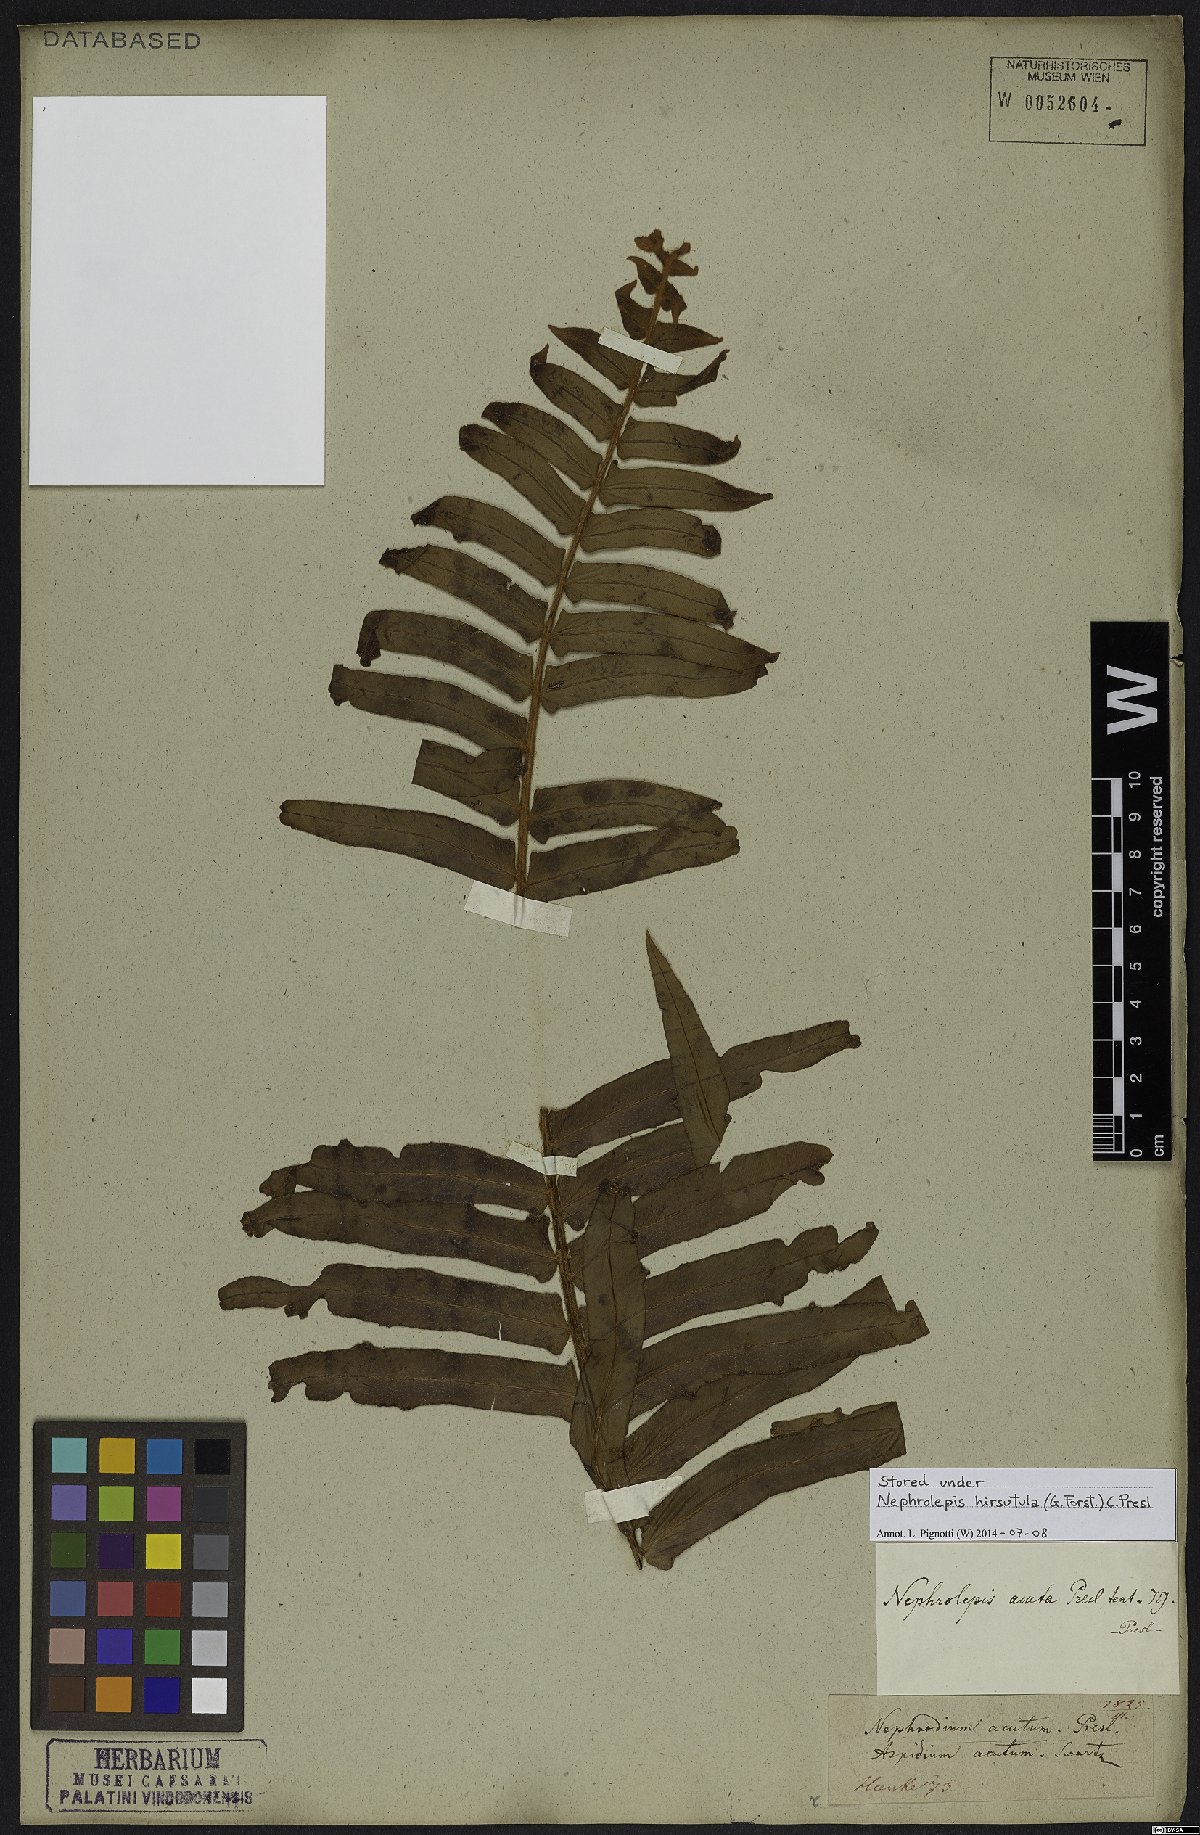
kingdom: Plantae
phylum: Tracheophyta
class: Polypodiopsida
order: Polypodiales
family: Nephrolepidaceae
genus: Nephrolepis
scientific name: Nephrolepis hirsutula
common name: Asian sword fern
